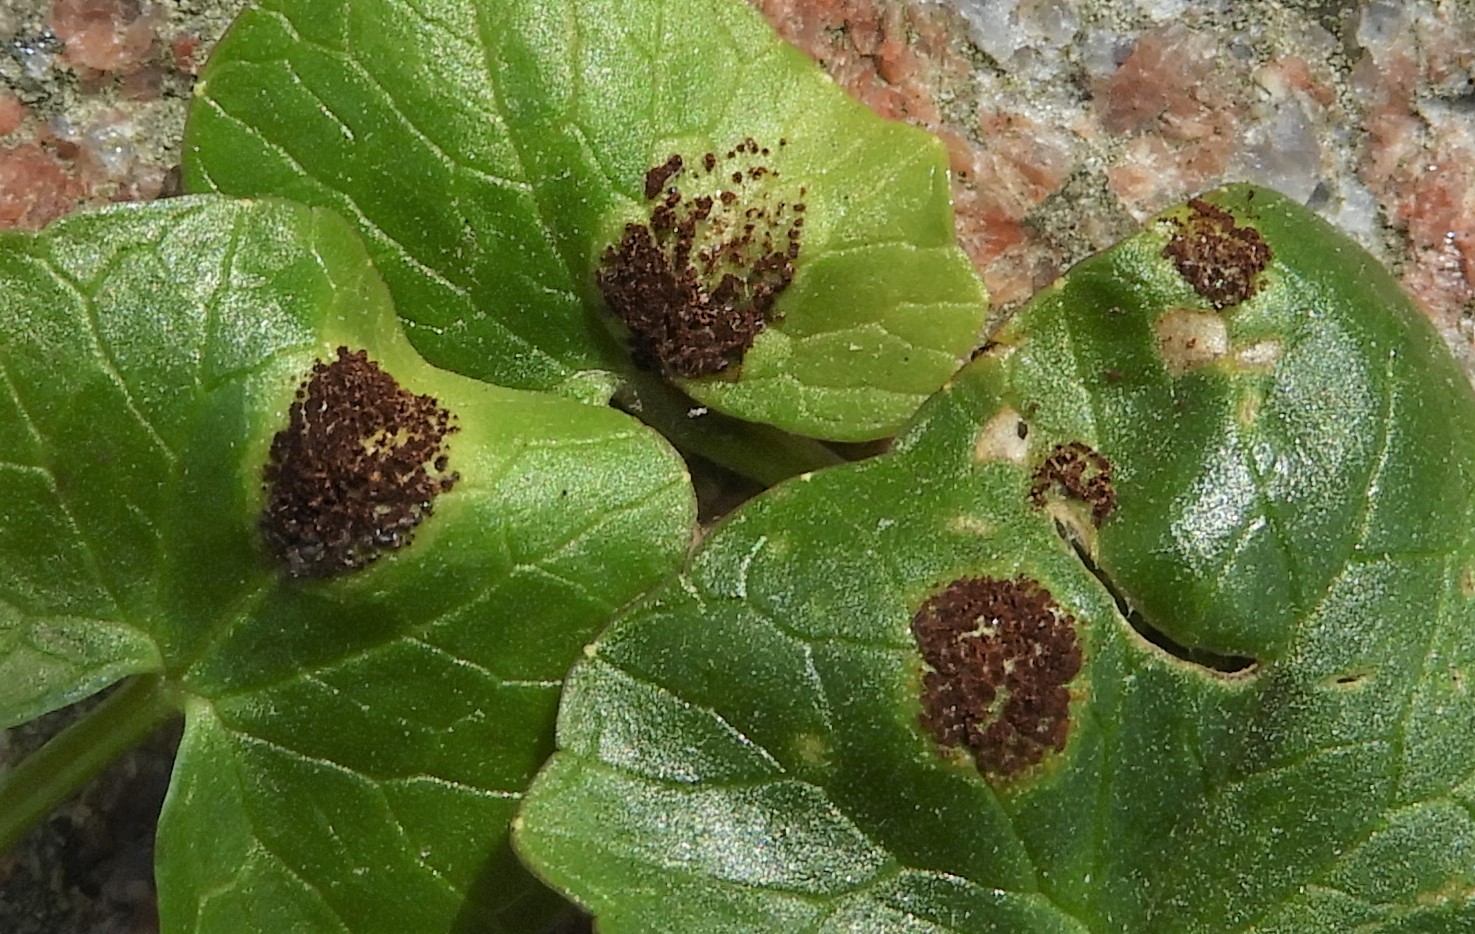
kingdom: Fungi
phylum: Basidiomycota
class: Pucciniomycetes
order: Pucciniales
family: Pucciniaceae
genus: Uromyces
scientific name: Uromyces ficariae
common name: vorterod-encellerust
